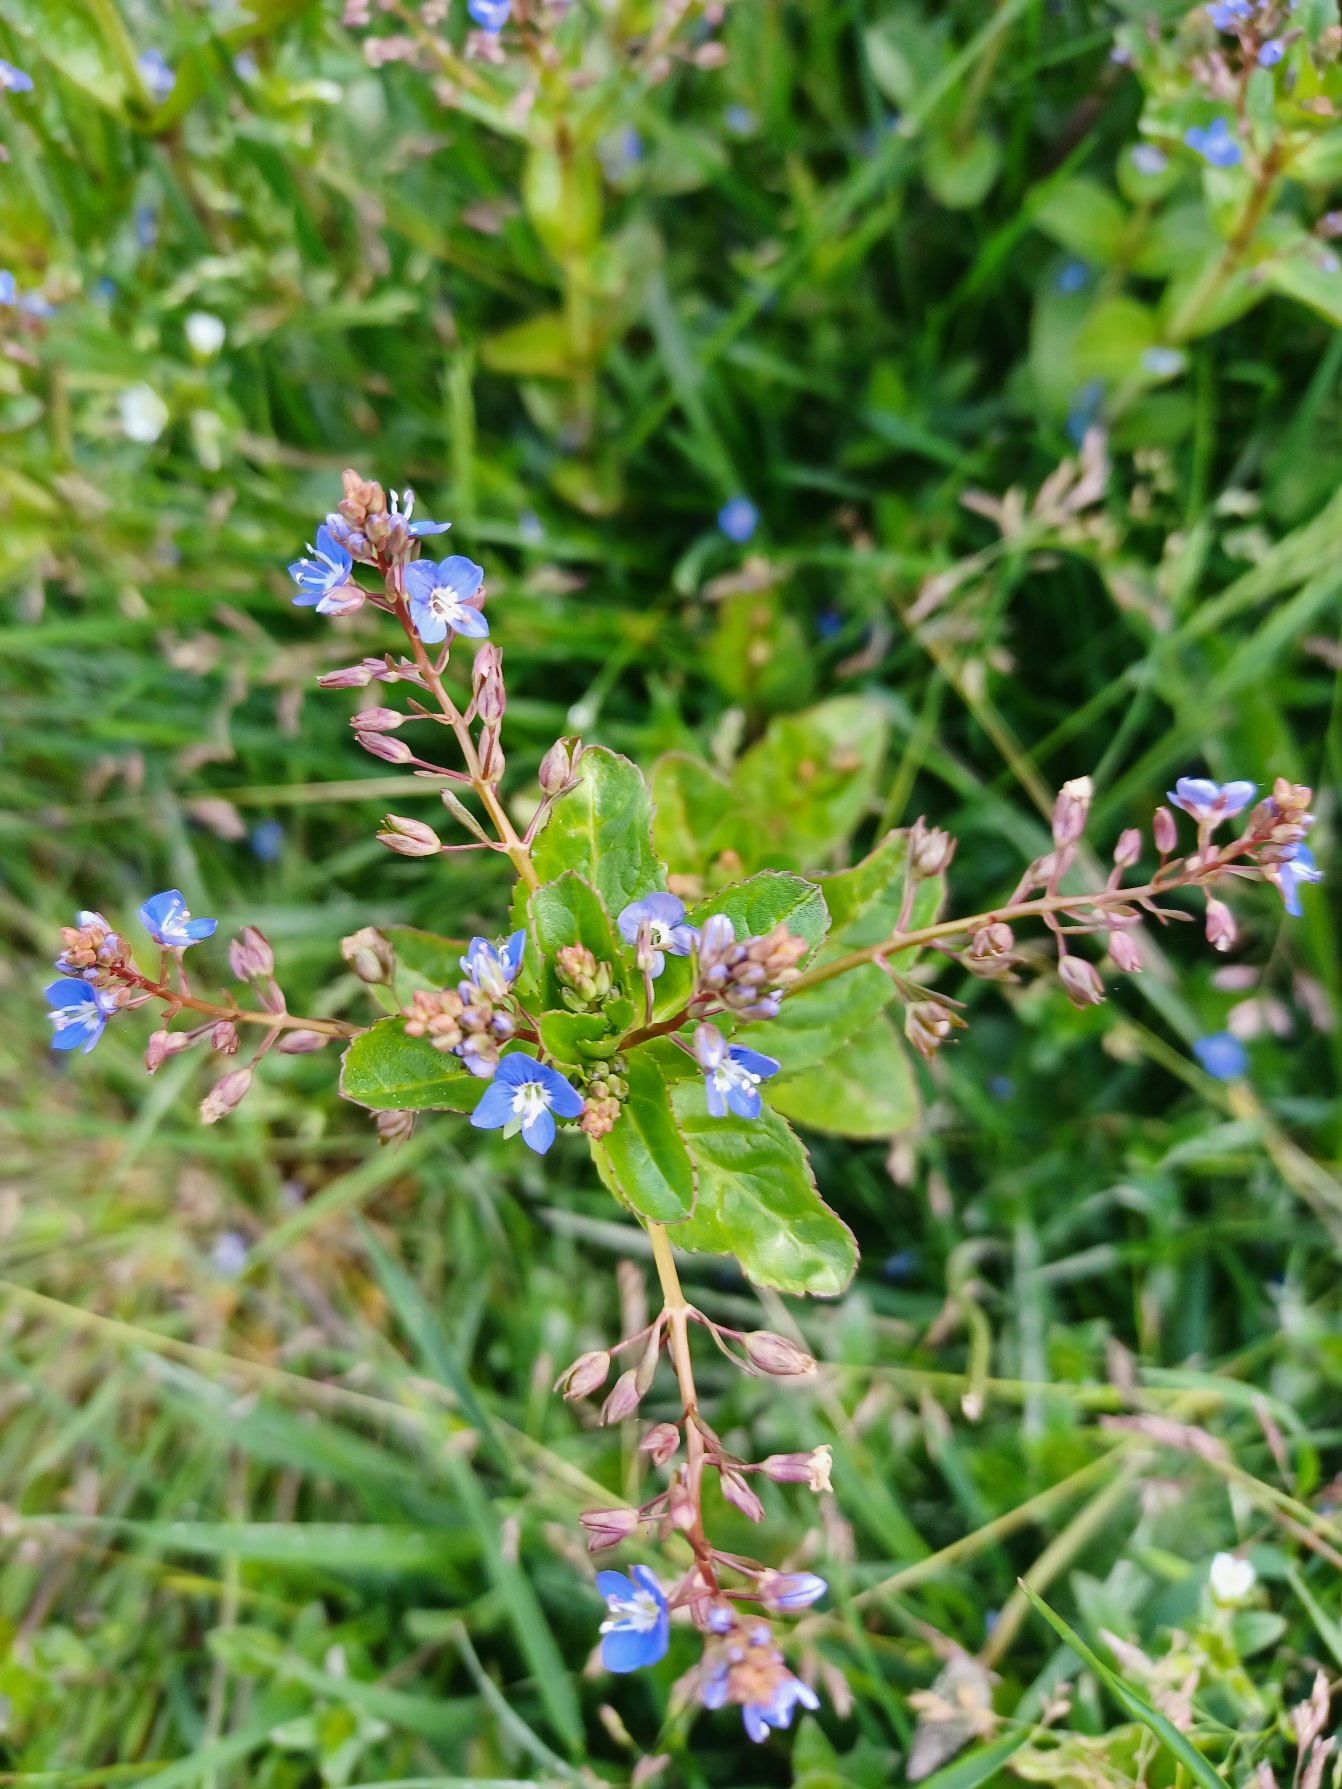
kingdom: Plantae
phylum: Tracheophyta
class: Magnoliopsida
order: Lamiales
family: Plantaginaceae
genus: Veronica
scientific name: Veronica beccabunga
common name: Tykbladet ærenpris
